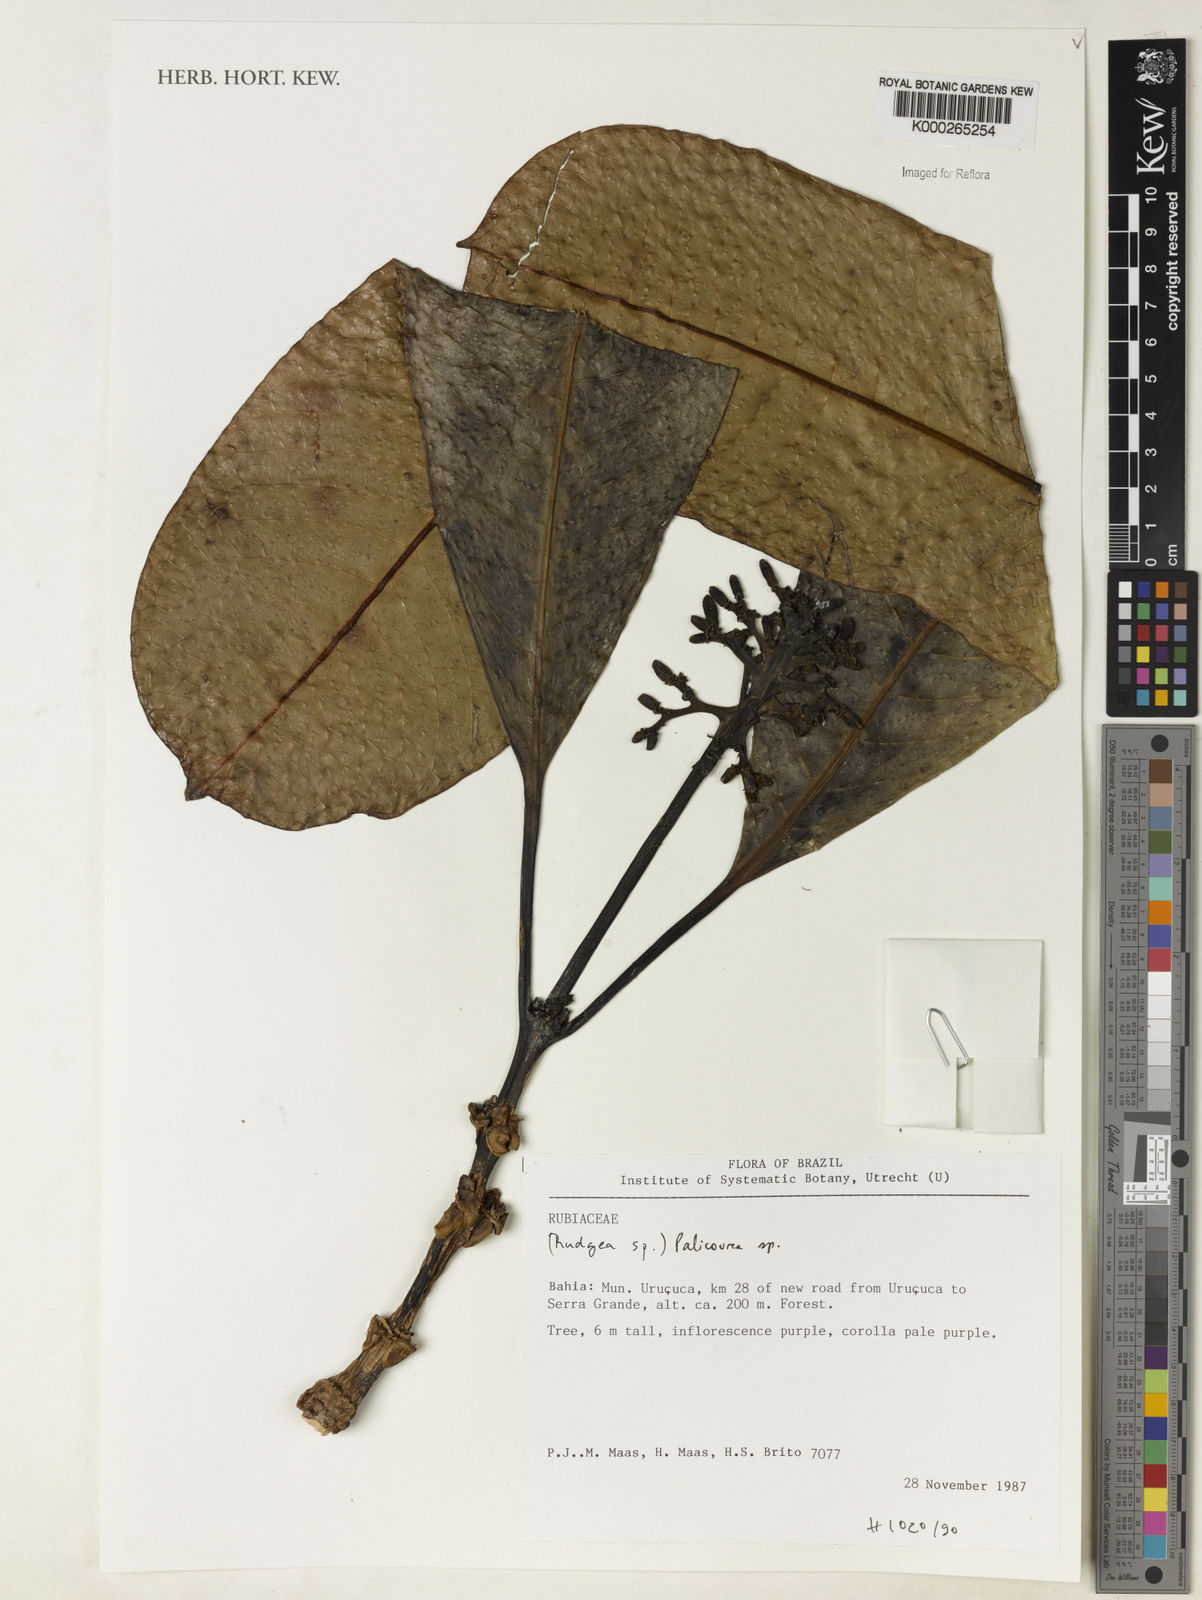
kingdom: Plantae
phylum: Tracheophyta
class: Magnoliopsida
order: Gentianales
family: Rubiaceae
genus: Palicourea
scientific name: Palicourea
